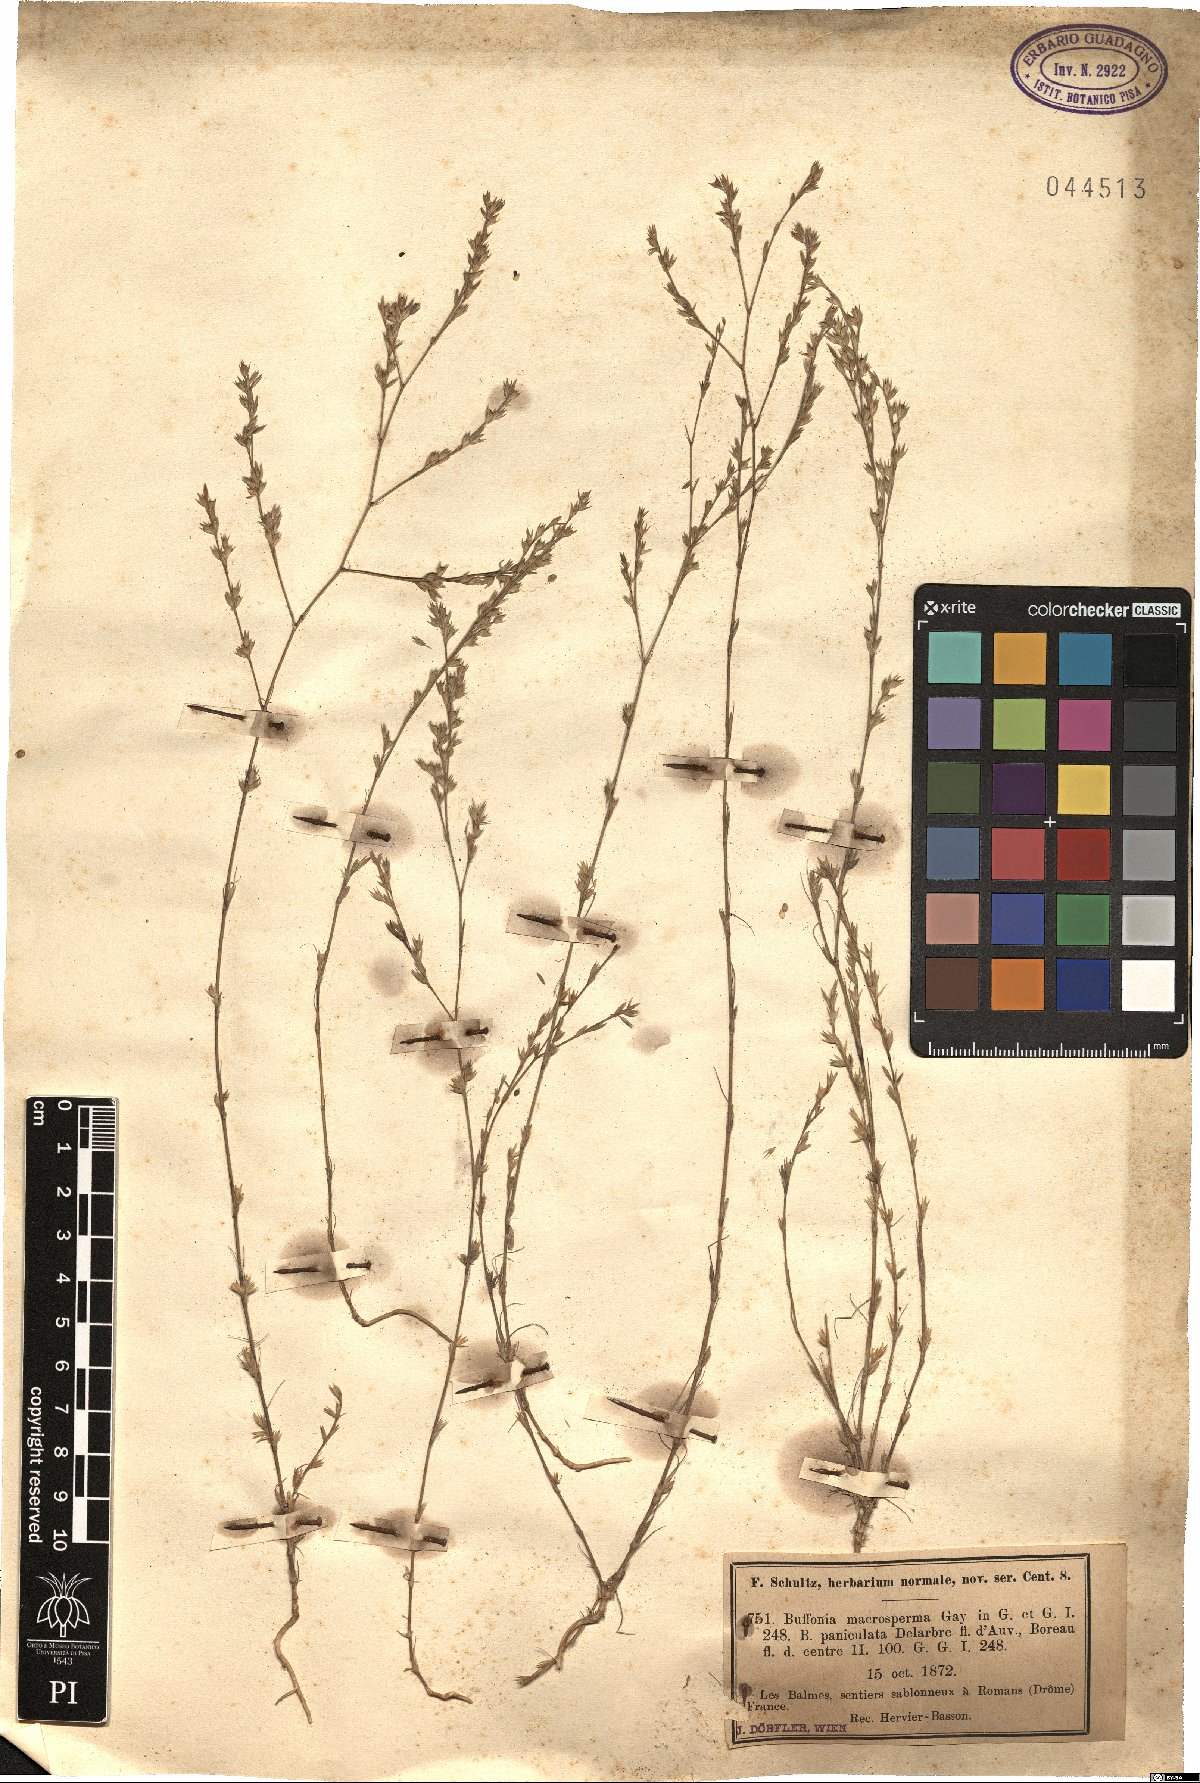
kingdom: Plantae
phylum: Tracheophyta
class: Magnoliopsida
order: Caryophyllales
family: Caryophyllaceae
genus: Bufonia
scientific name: Bufonia paniculata
